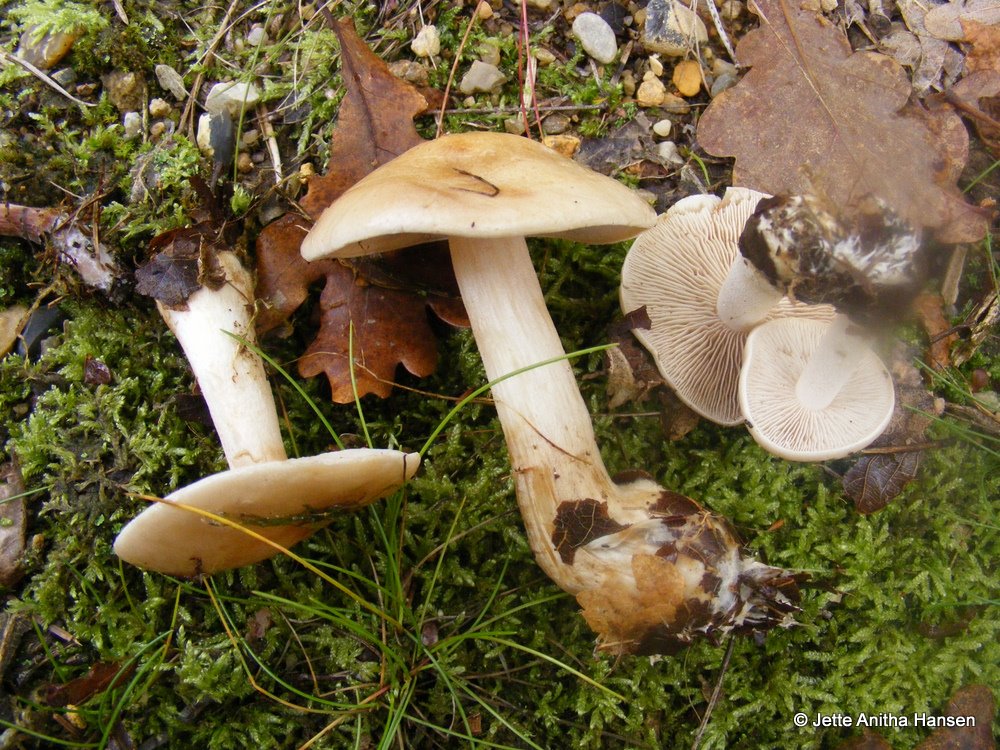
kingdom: Fungi
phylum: Basidiomycota
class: Agaricomycetes
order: Agaricales
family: Hymenogastraceae
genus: Hebeloma
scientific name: Hebeloma leucosarx
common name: højstokket tåreblad
